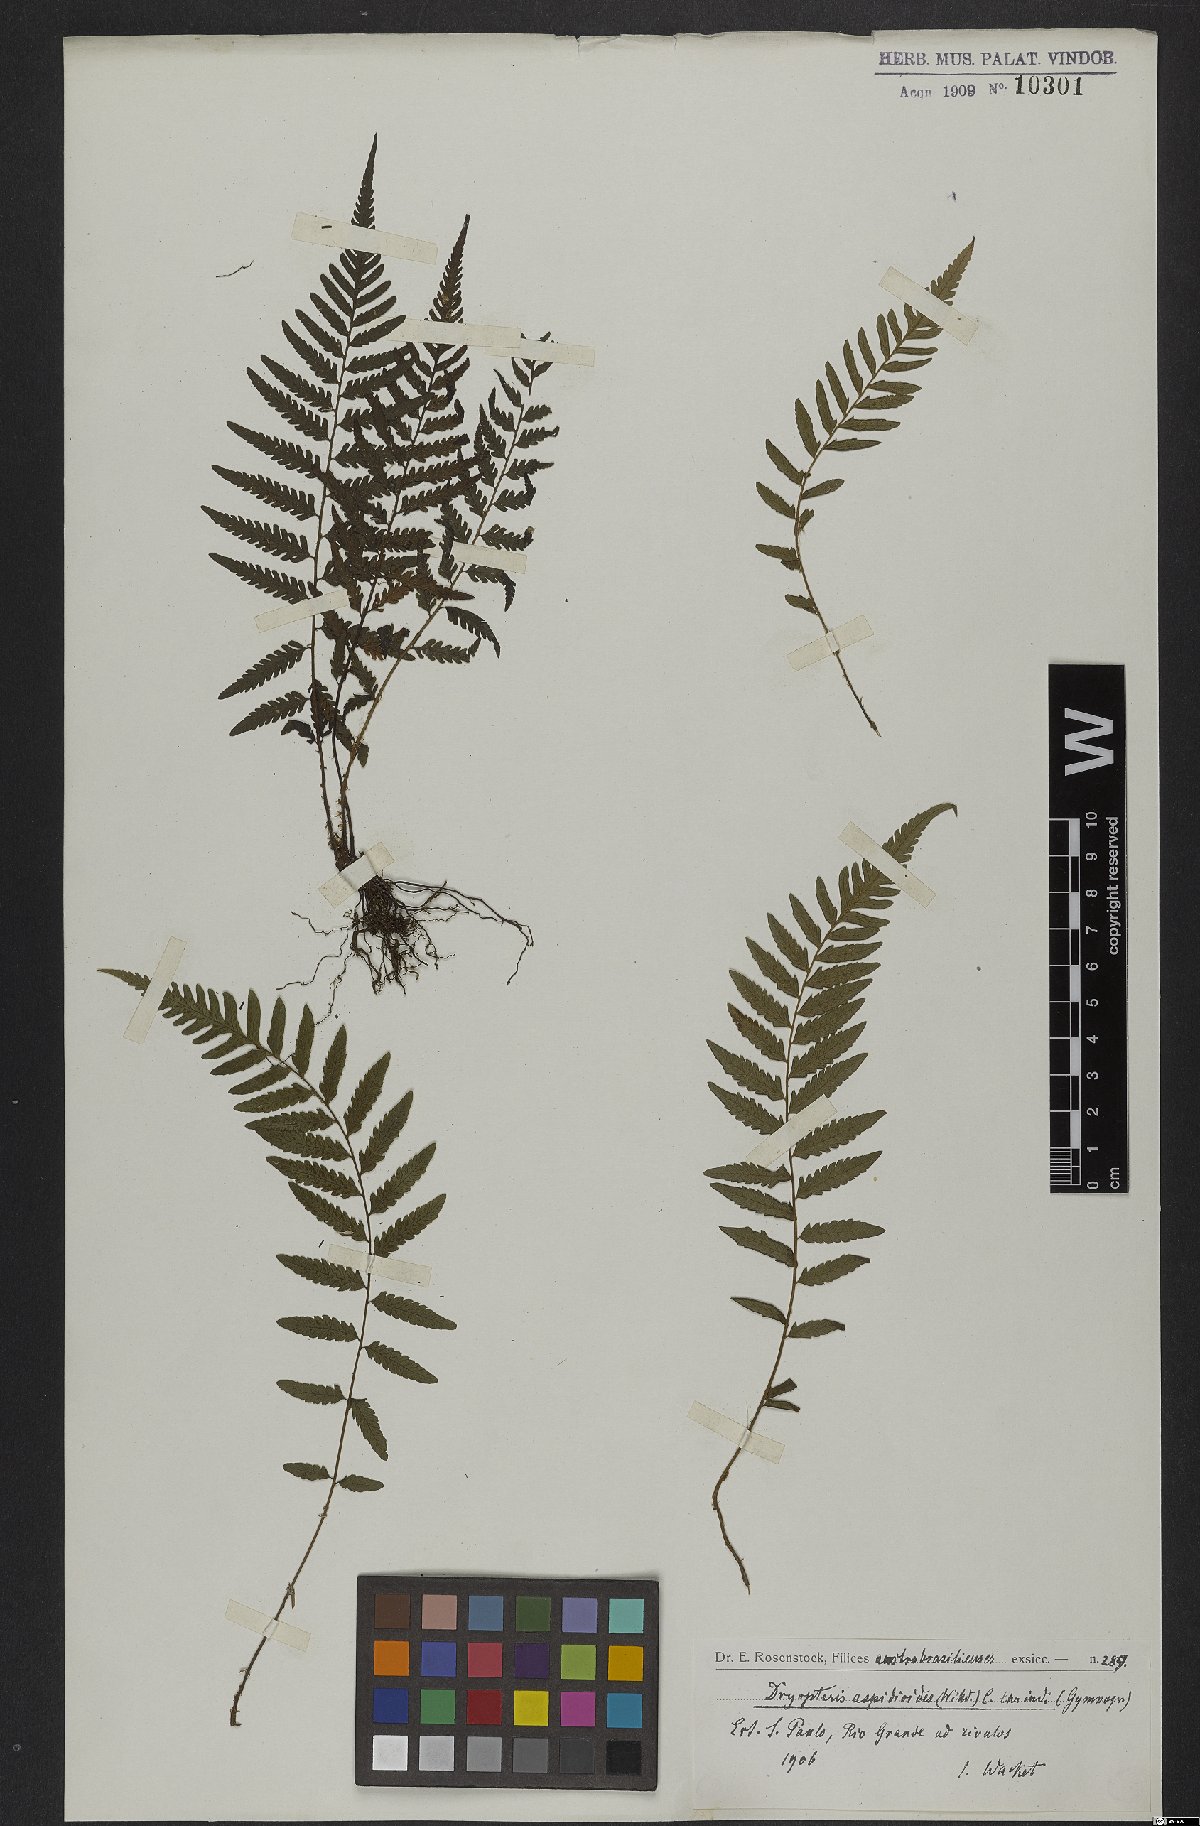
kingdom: Plantae
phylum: Tracheophyta
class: Polypodiopsida
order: Polypodiales
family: Thelypteridaceae
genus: Amauropelta
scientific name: Amauropelta aspidioides
